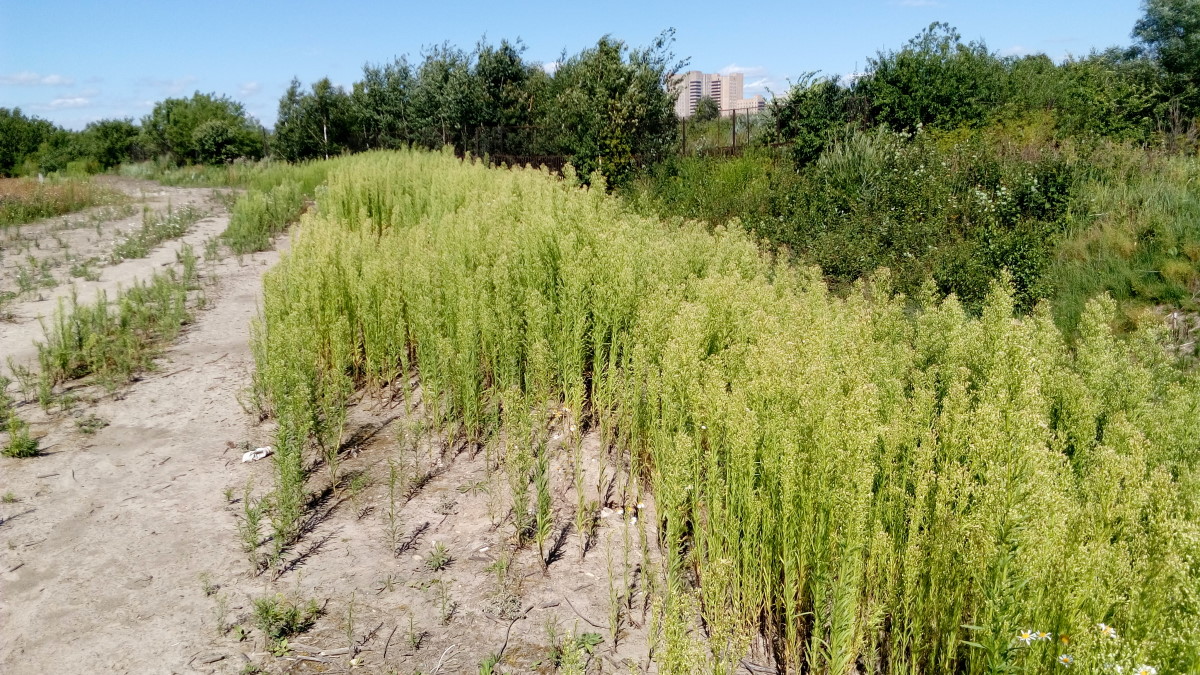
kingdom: Plantae
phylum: Tracheophyta
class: Magnoliopsida
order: Asterales
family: Asteraceae
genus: Erigeron
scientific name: Erigeron canadensis
